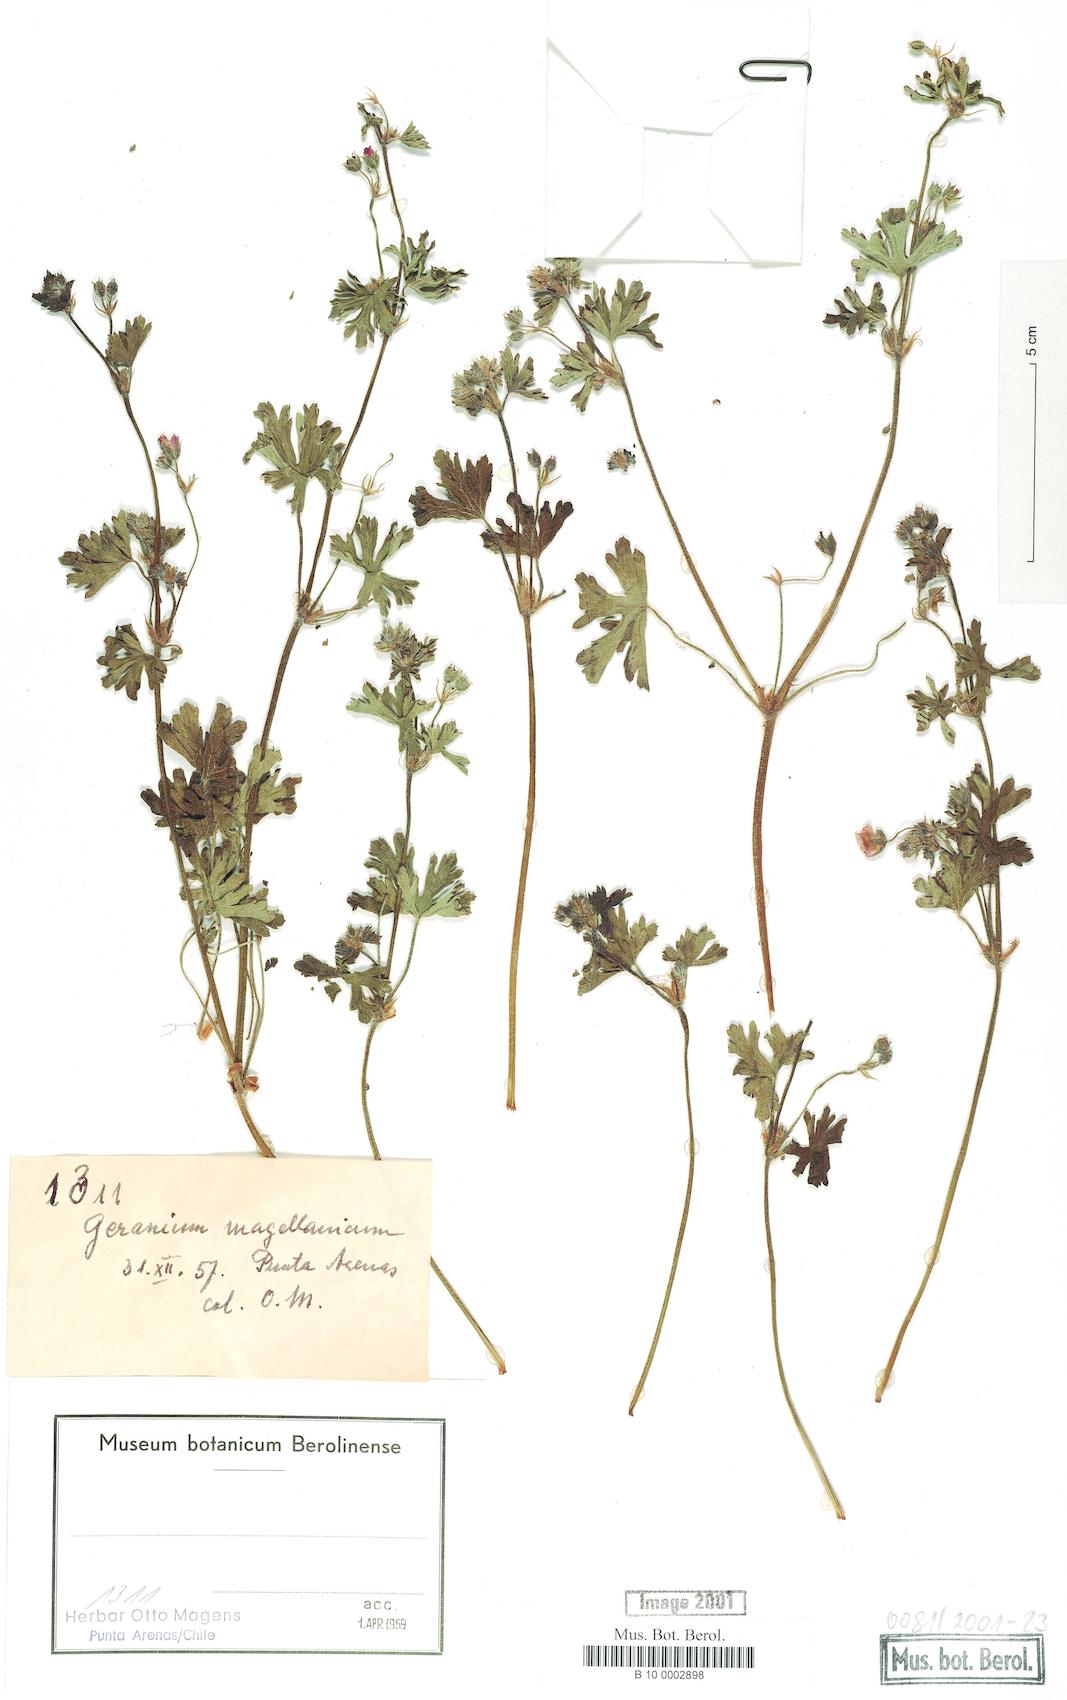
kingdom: Plantae
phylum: Tracheophyta
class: Magnoliopsida
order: Geraniales
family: Geraniaceae
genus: Geranium
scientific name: Geranium magellanicum
